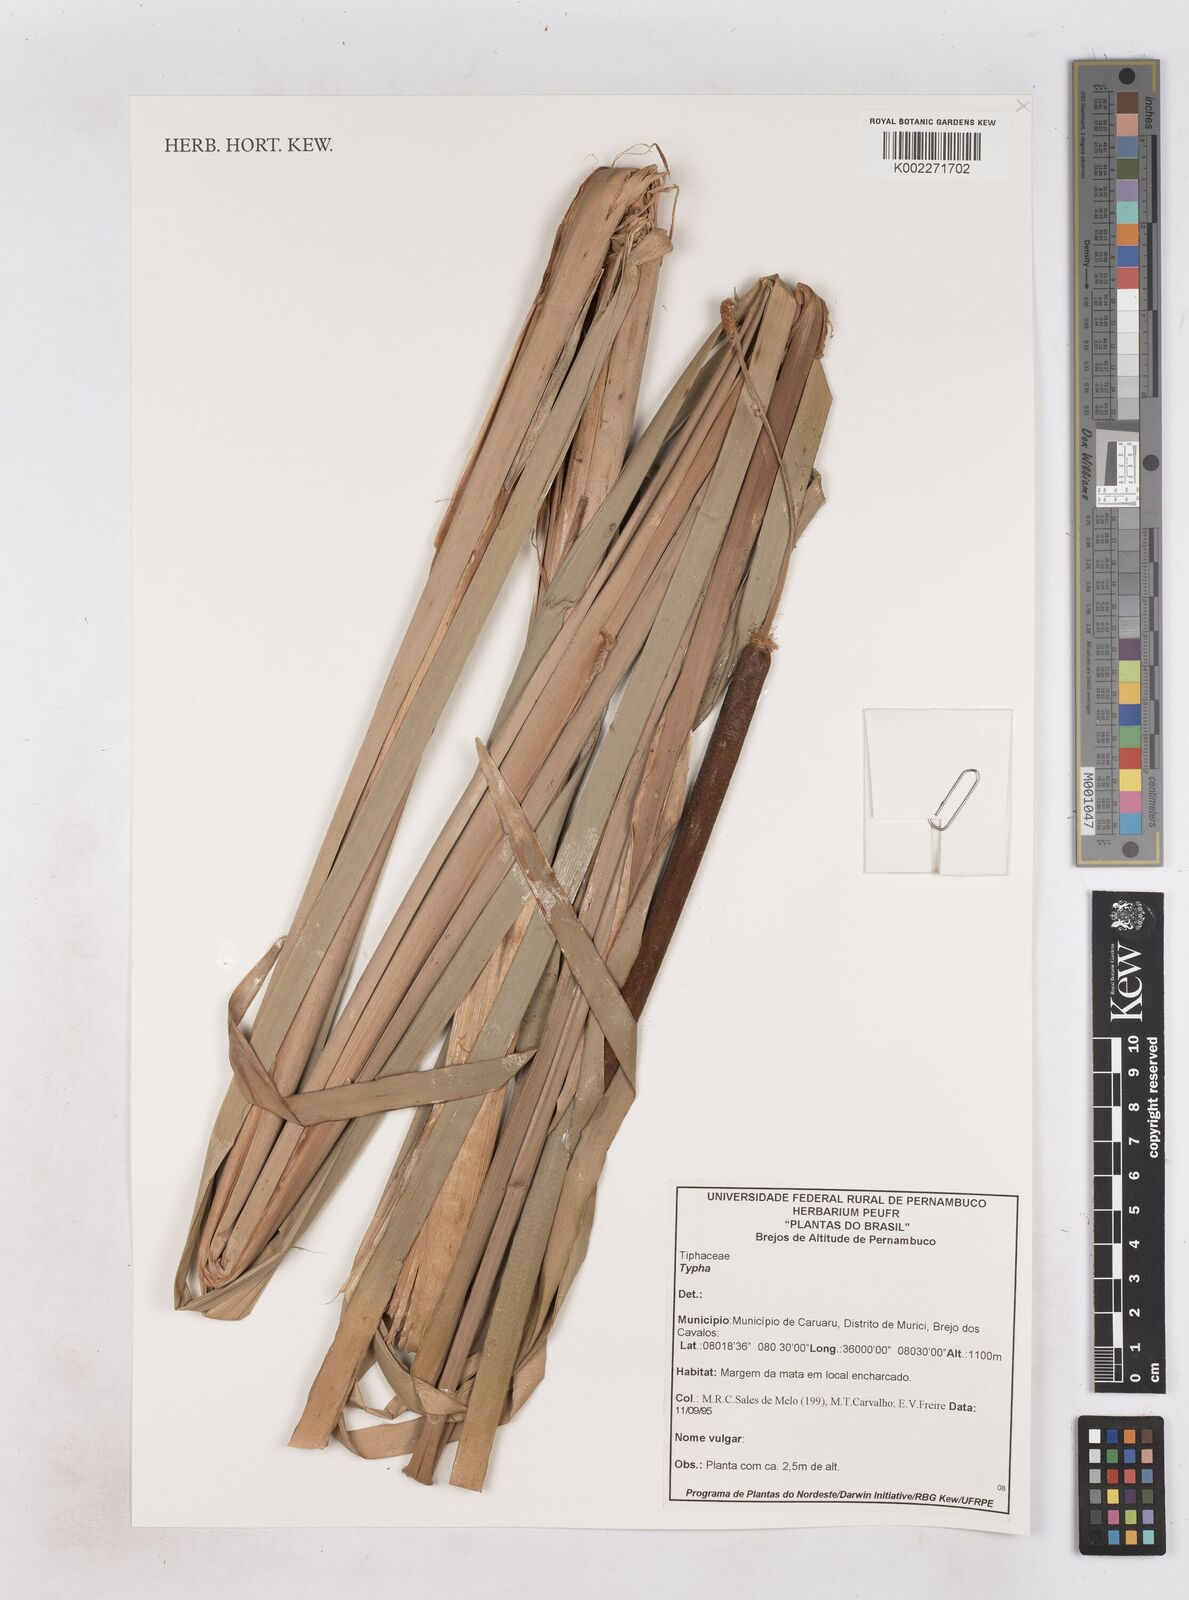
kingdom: Plantae
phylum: Tracheophyta
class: Liliopsida
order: Poales
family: Typhaceae
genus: Typha
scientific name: Typha
